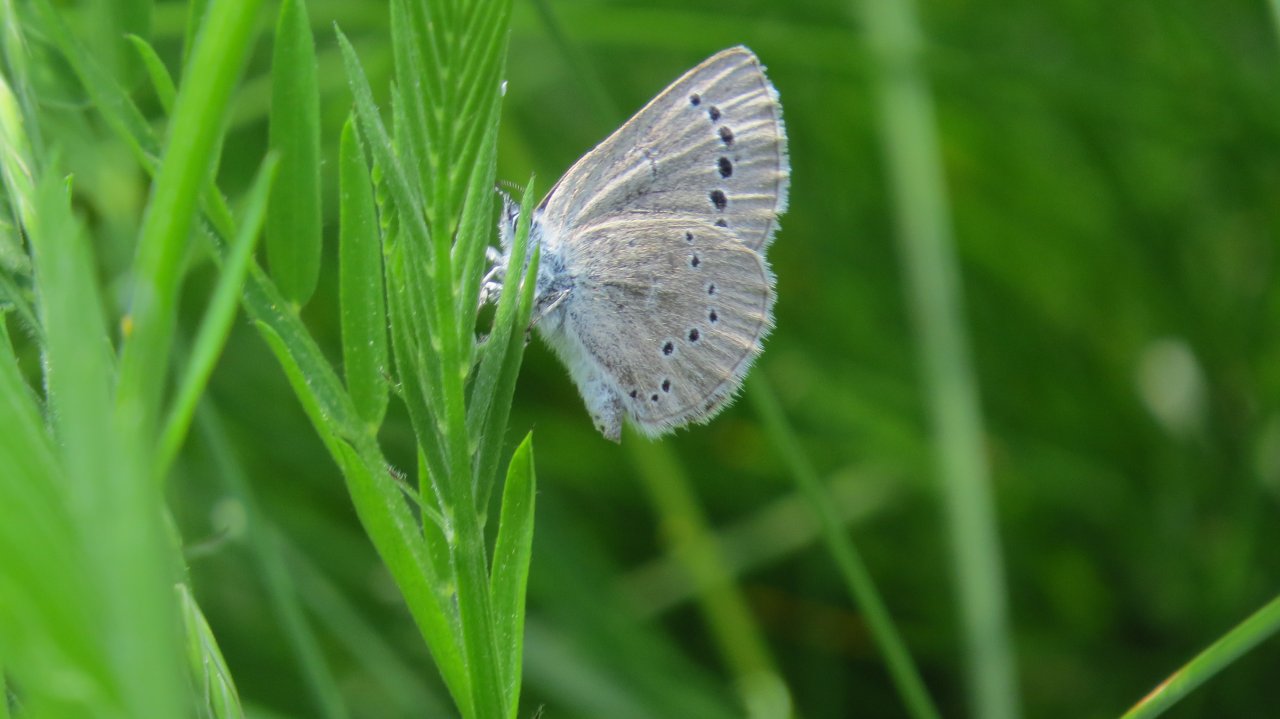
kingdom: Animalia
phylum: Arthropoda
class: Insecta
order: Lepidoptera
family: Lycaenidae
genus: Glaucopsyche
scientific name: Glaucopsyche lygdamus
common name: Silvery Blue
